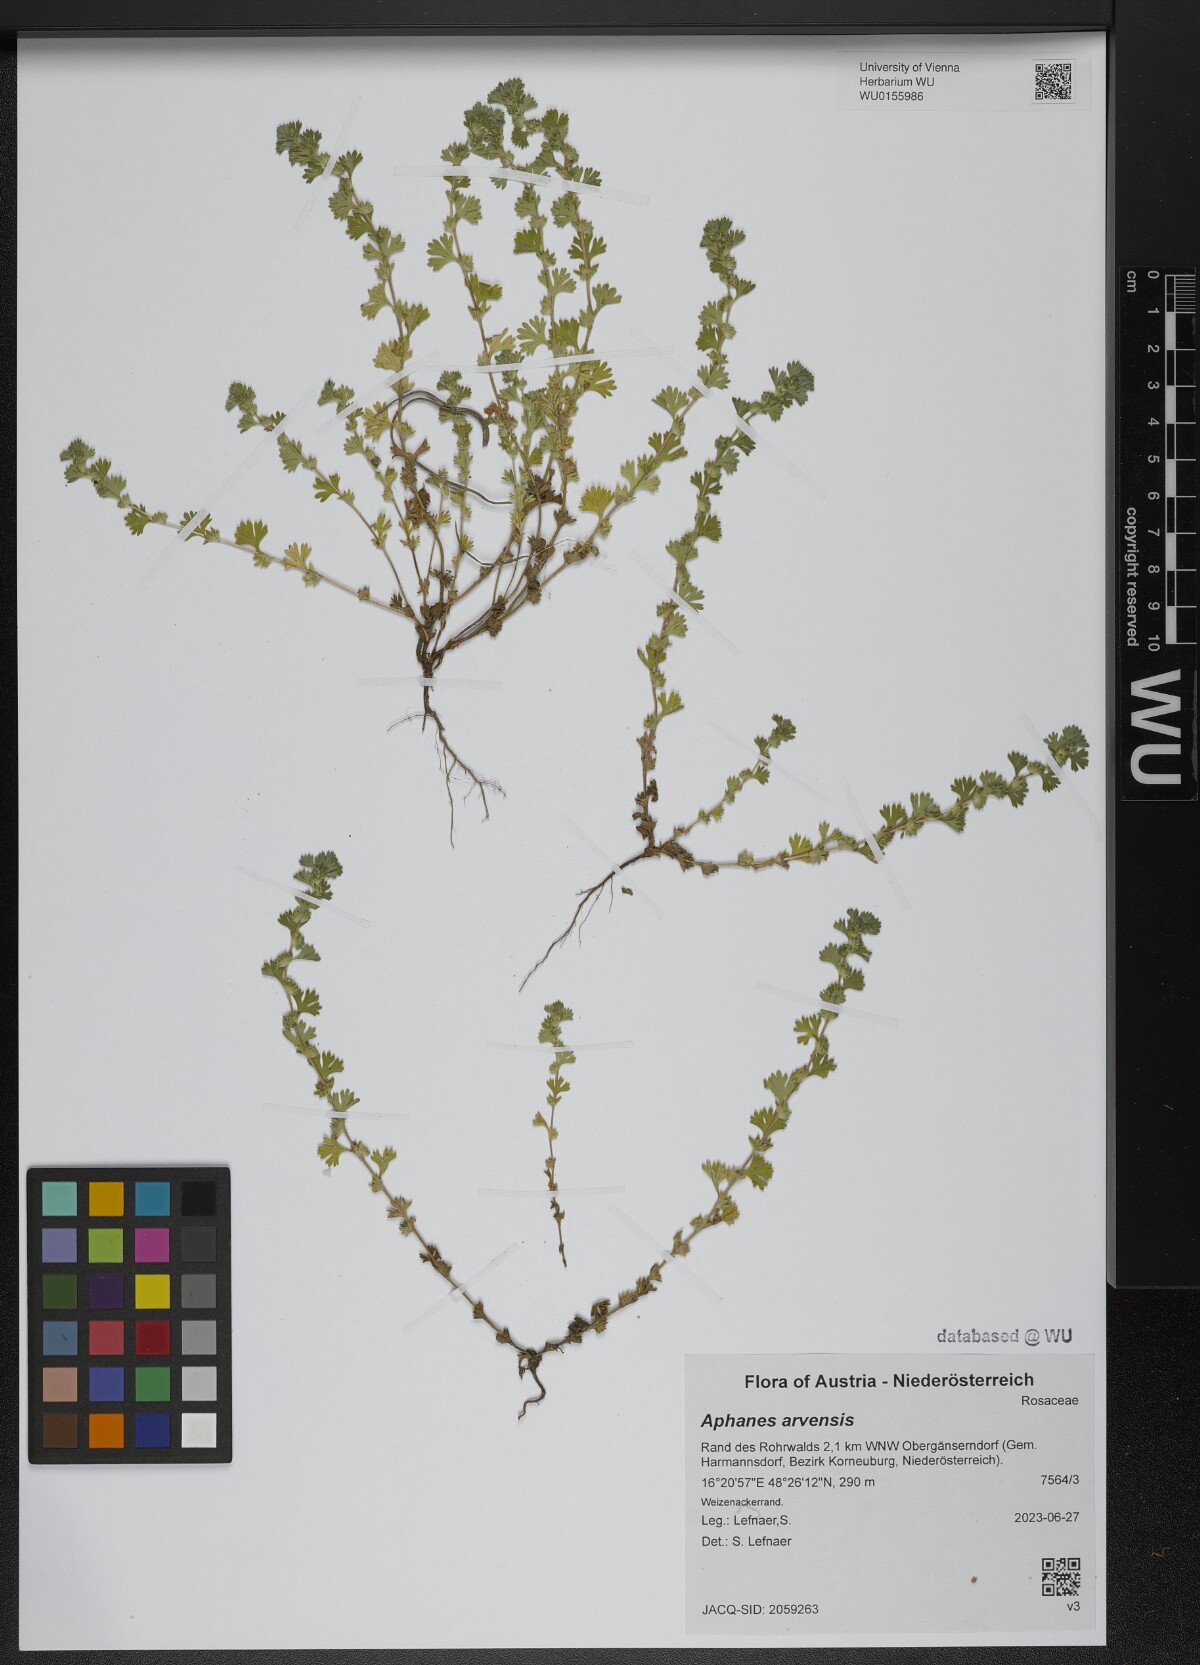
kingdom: Plantae
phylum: Tracheophyta
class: Magnoliopsida
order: Rosales
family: Rosaceae
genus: Aphanes
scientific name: Aphanes arvensis
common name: Parsley-piert
